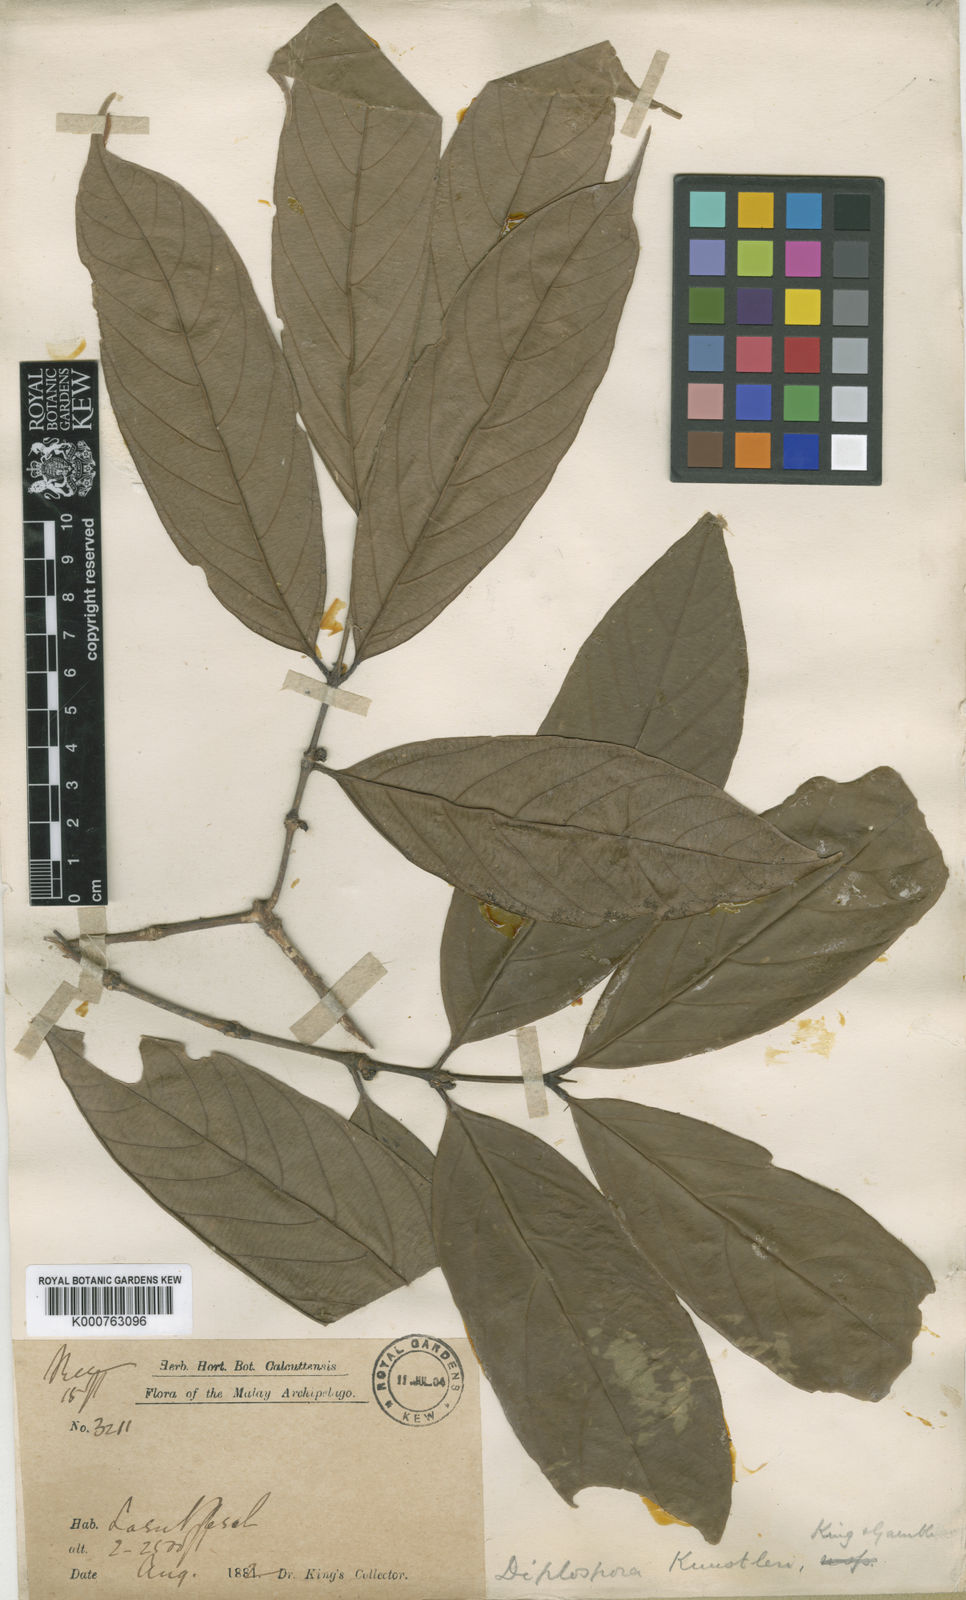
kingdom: Plantae
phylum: Tracheophyta
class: Magnoliopsida
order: Gentianales
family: Rubiaceae
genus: Diplospora
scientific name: Diplospora kunstleri
